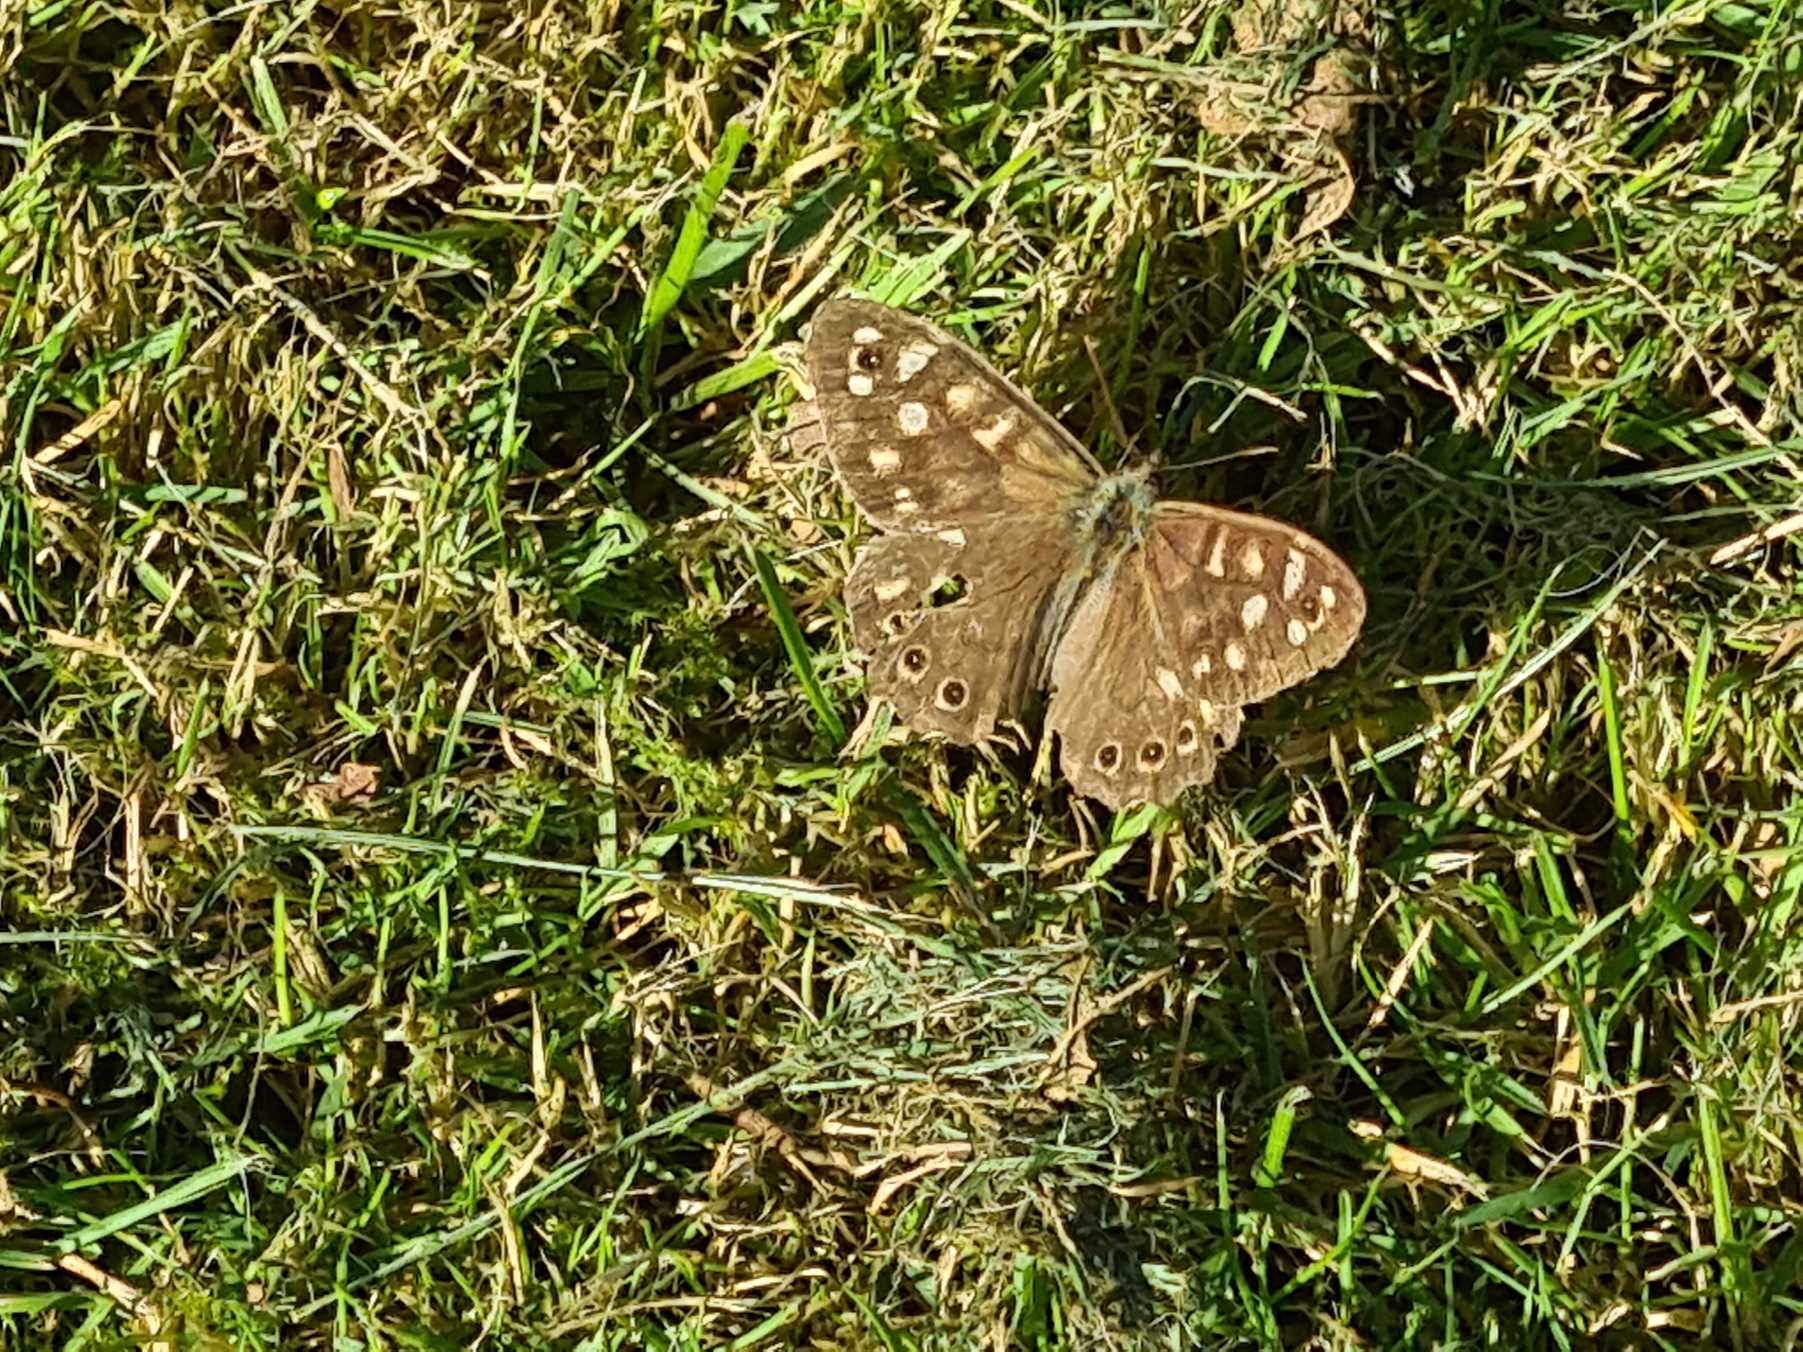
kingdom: Animalia
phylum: Arthropoda
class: Insecta
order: Lepidoptera
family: Nymphalidae
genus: Pararge
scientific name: Pararge aegeria
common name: Skovrandøje
